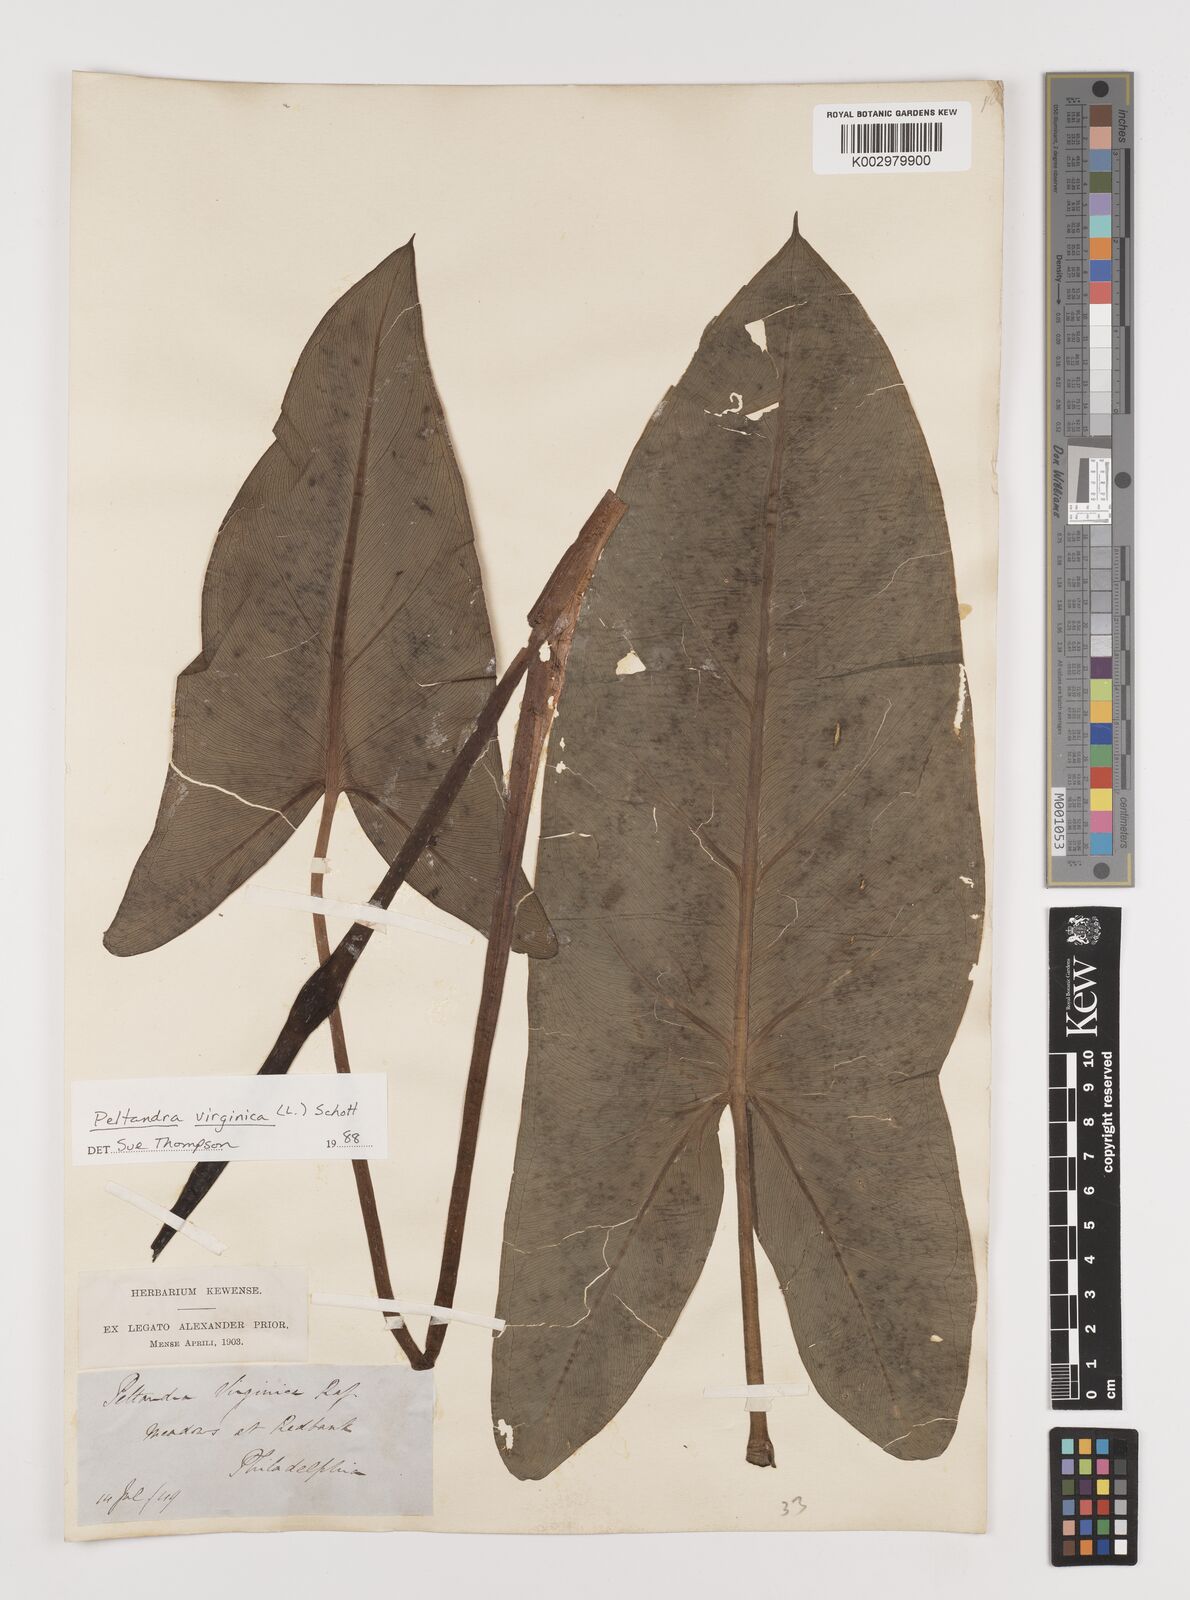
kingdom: Plantae
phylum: Tracheophyta
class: Liliopsida
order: Alismatales
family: Araceae
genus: Peltandra
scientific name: Peltandra virginica
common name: Arrow arum
